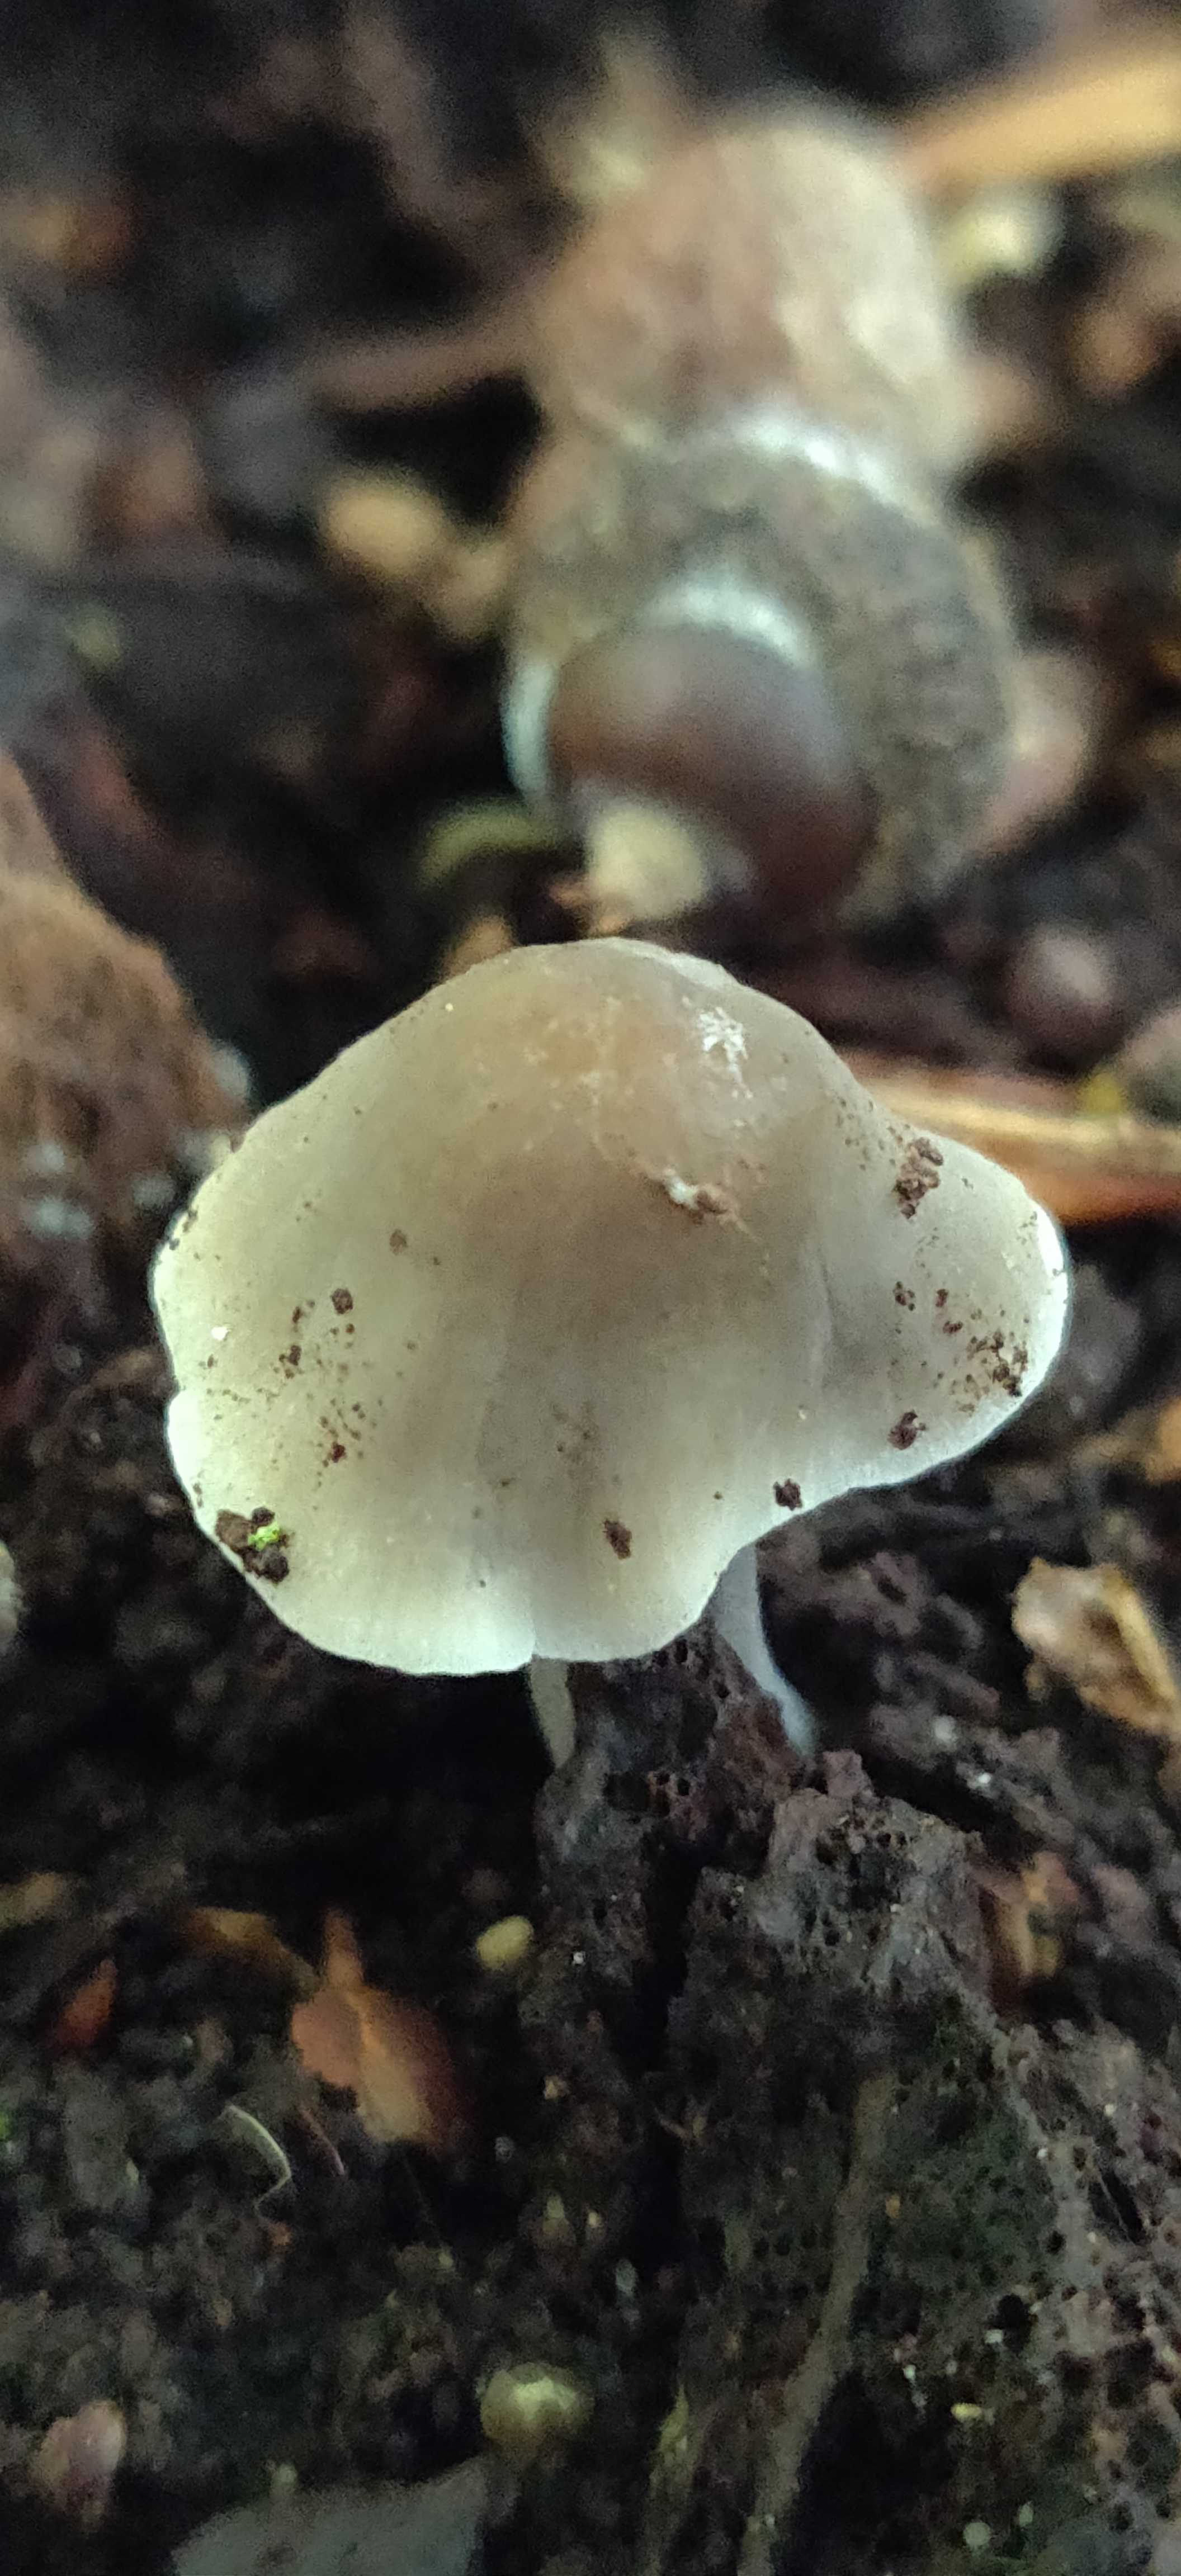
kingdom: Fungi
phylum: Basidiomycota
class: Agaricomycetes
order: Agaricales
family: Mycenaceae
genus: Mycena
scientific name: Mycena galericulata
